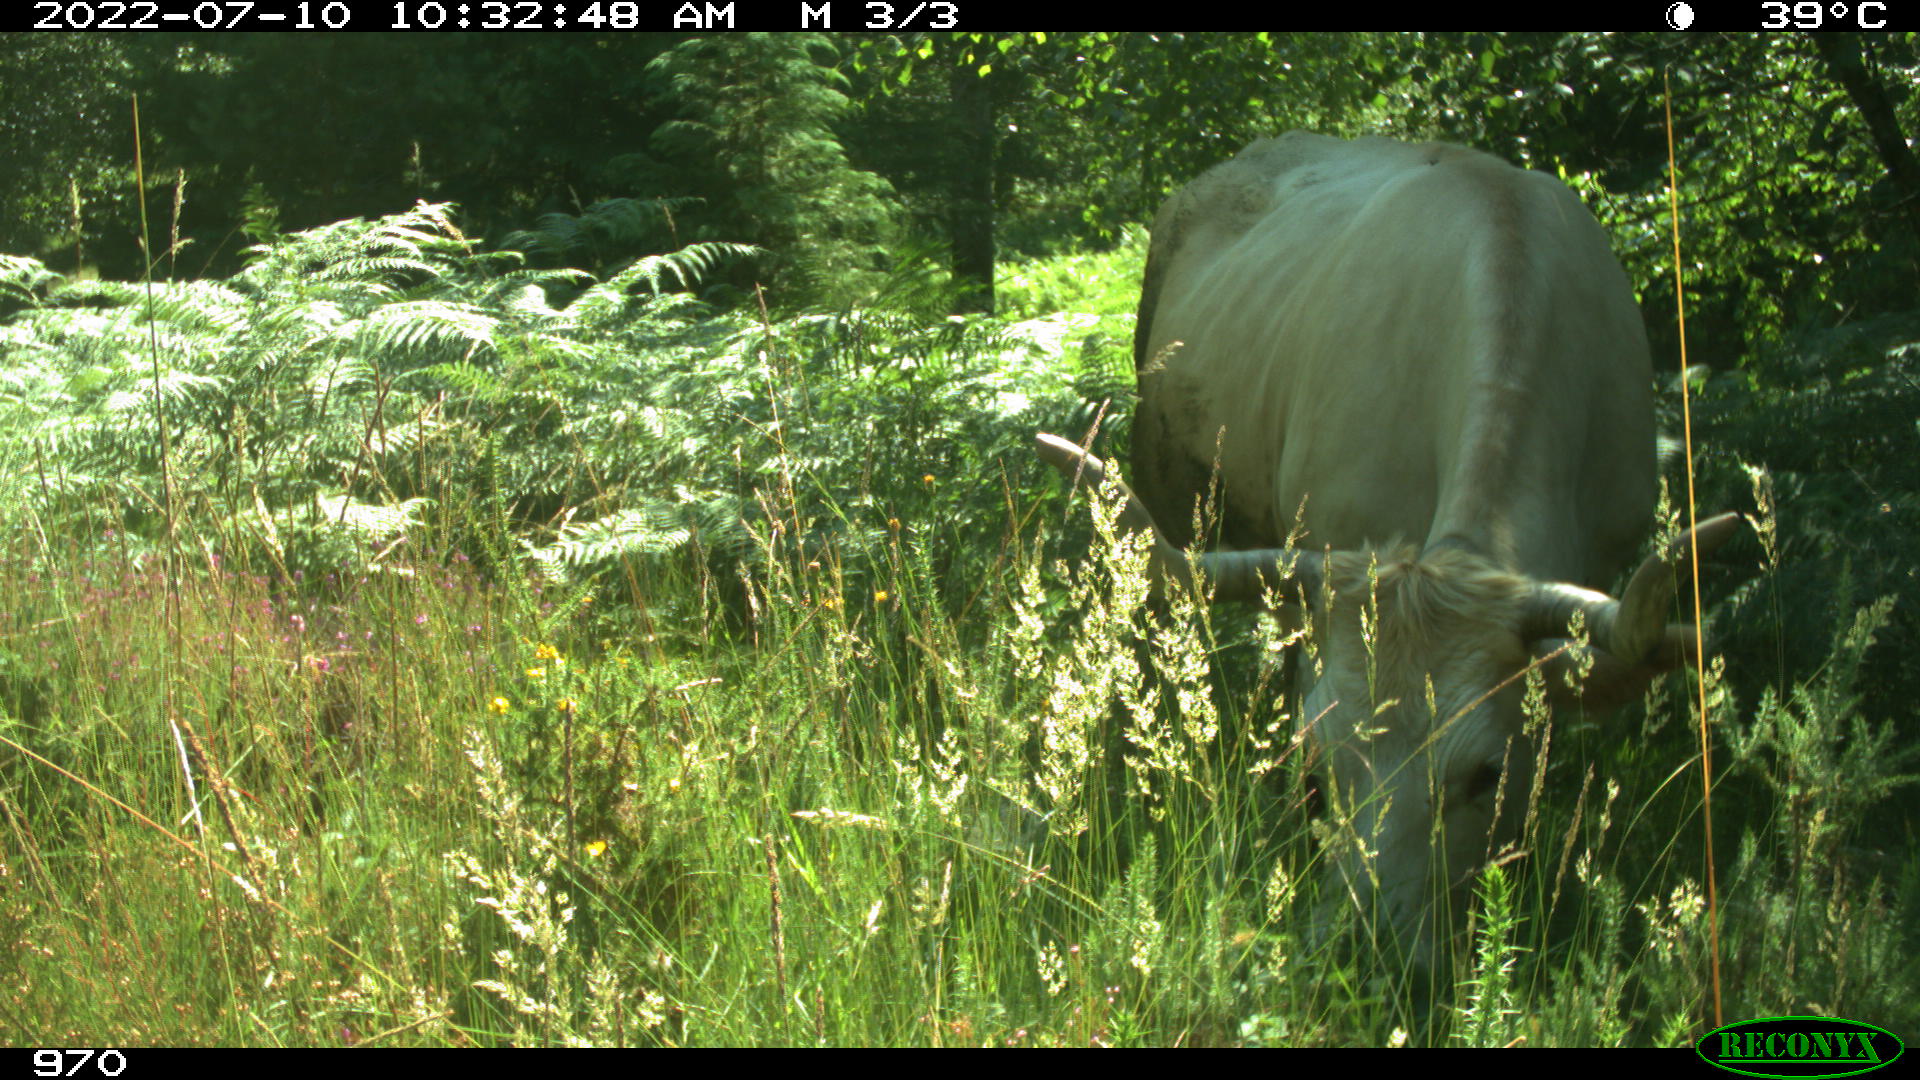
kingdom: Animalia
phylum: Chordata
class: Mammalia
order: Artiodactyla
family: Bovidae
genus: Bos
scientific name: Bos taurus
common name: Domesticated cattle
